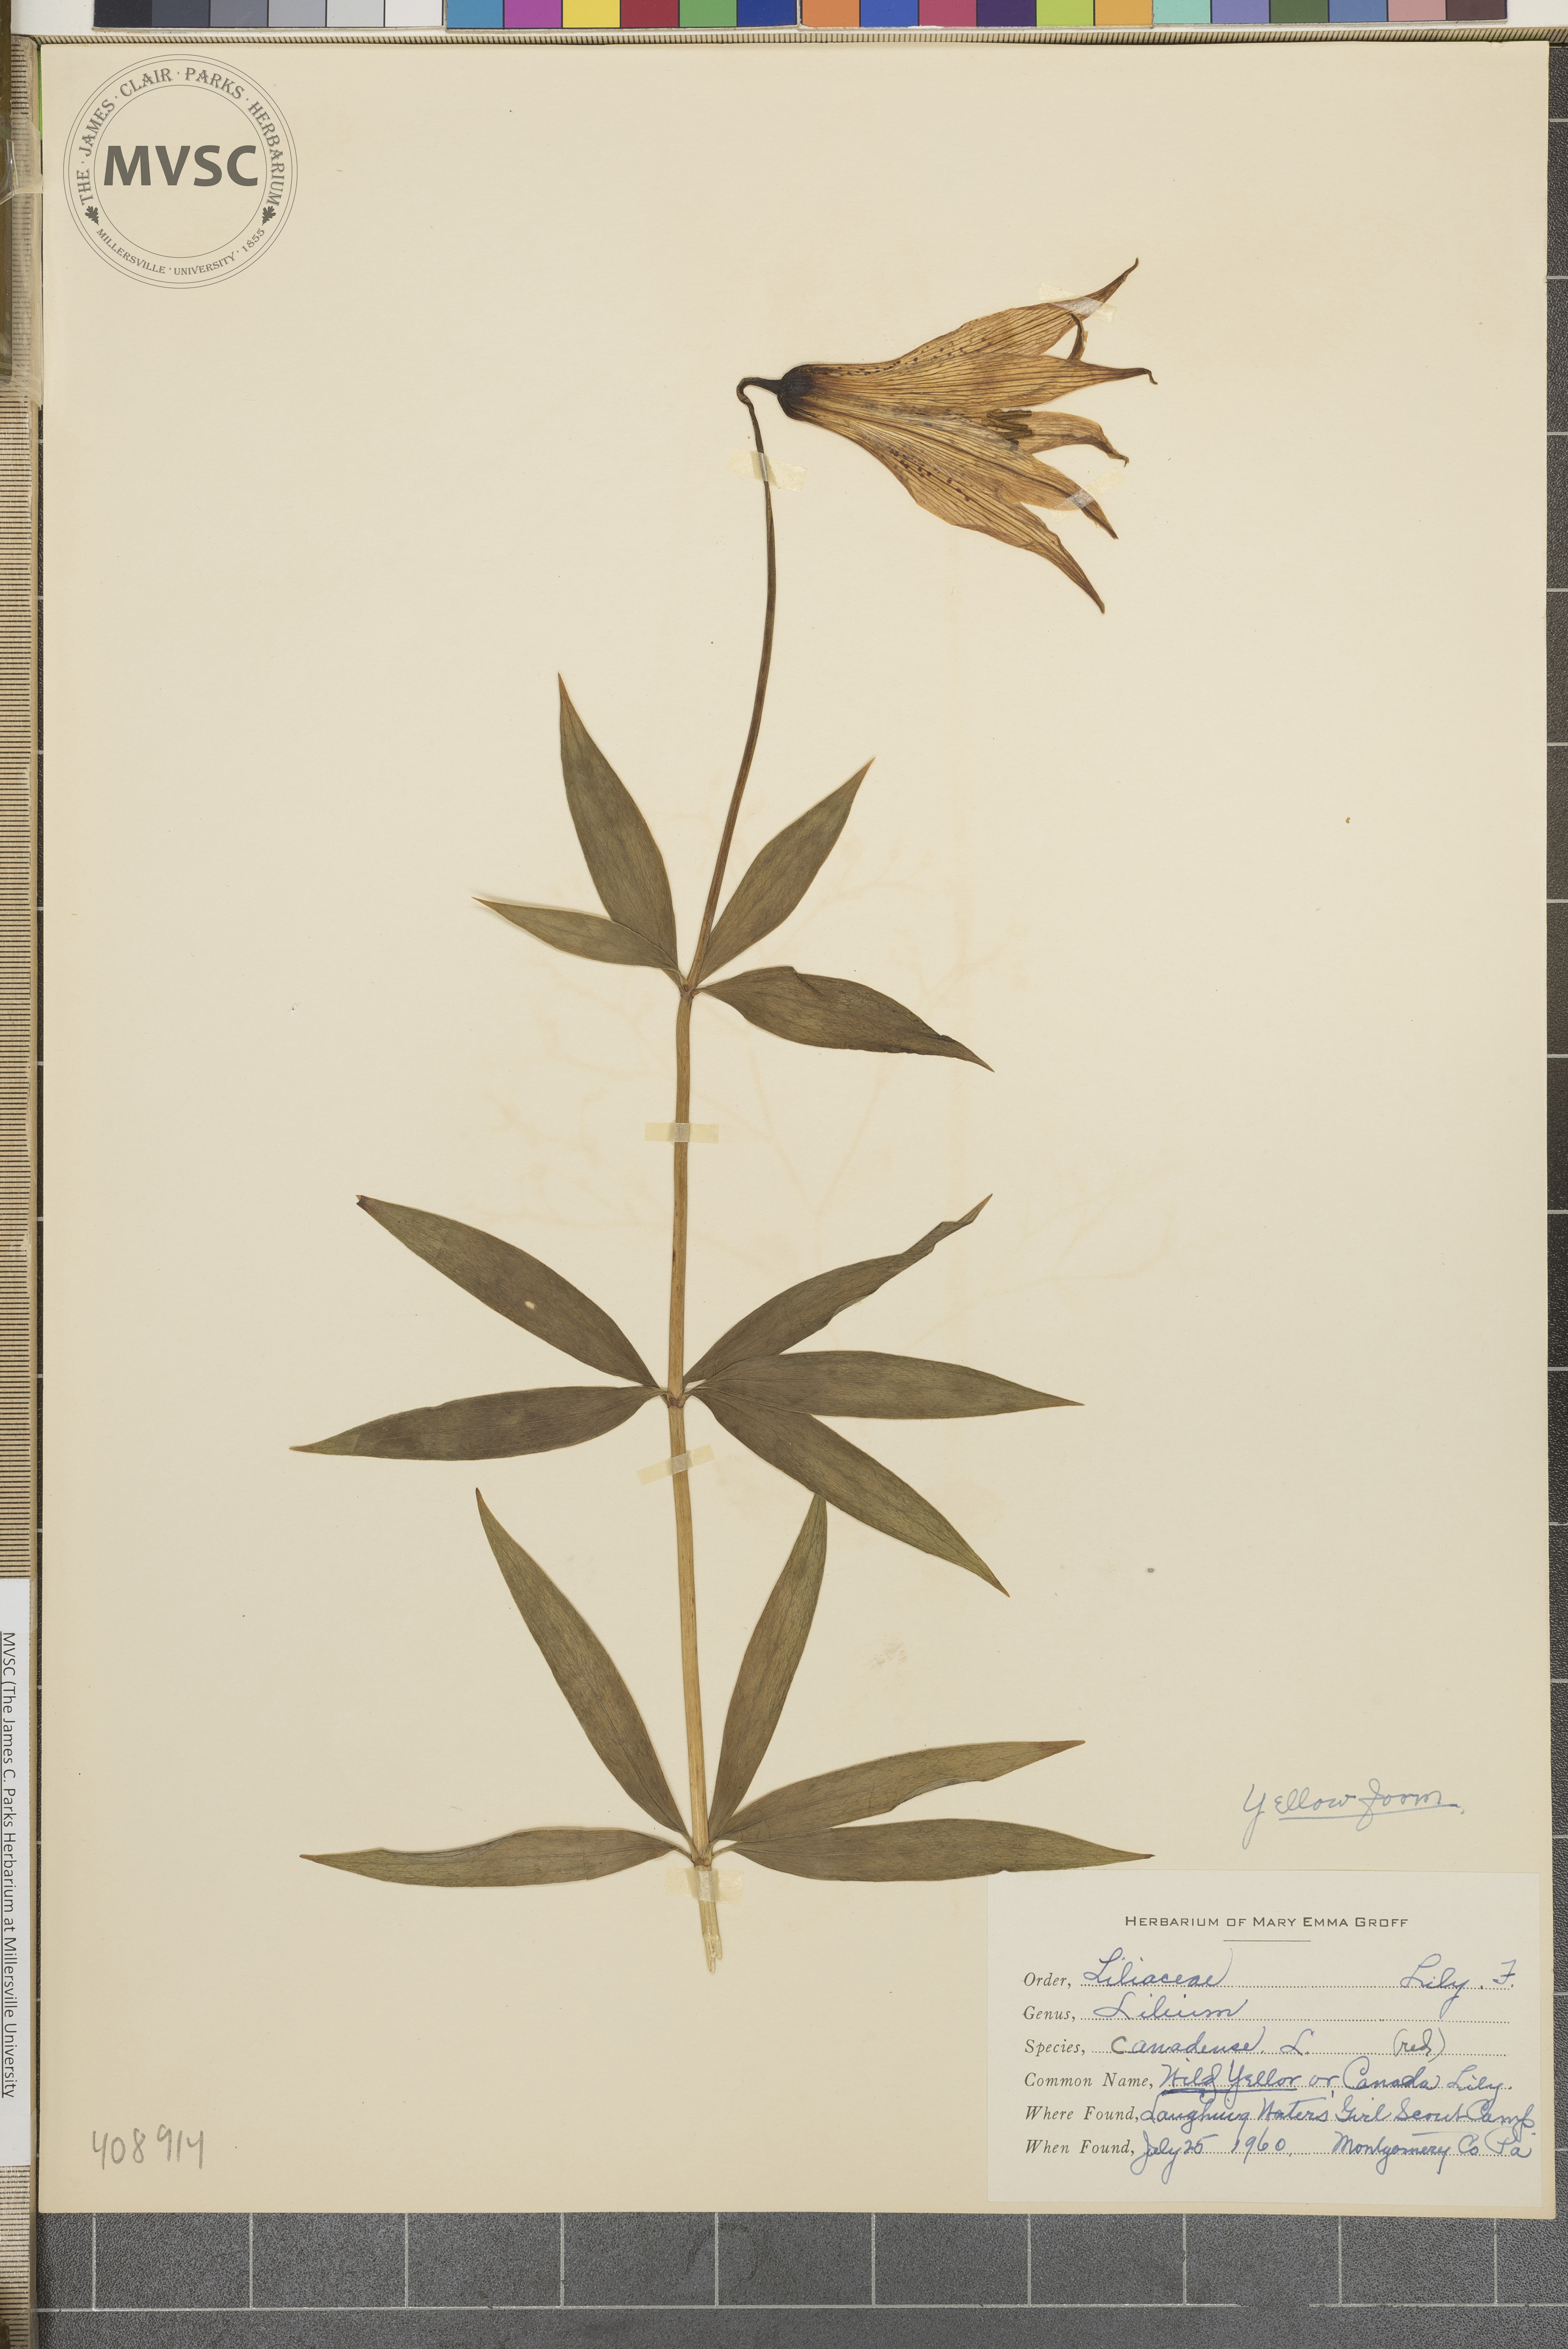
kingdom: Plantae
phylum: Tracheophyta
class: Liliopsida
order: Liliales
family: Liliaceae
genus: Lilium
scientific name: Lilium canadense
